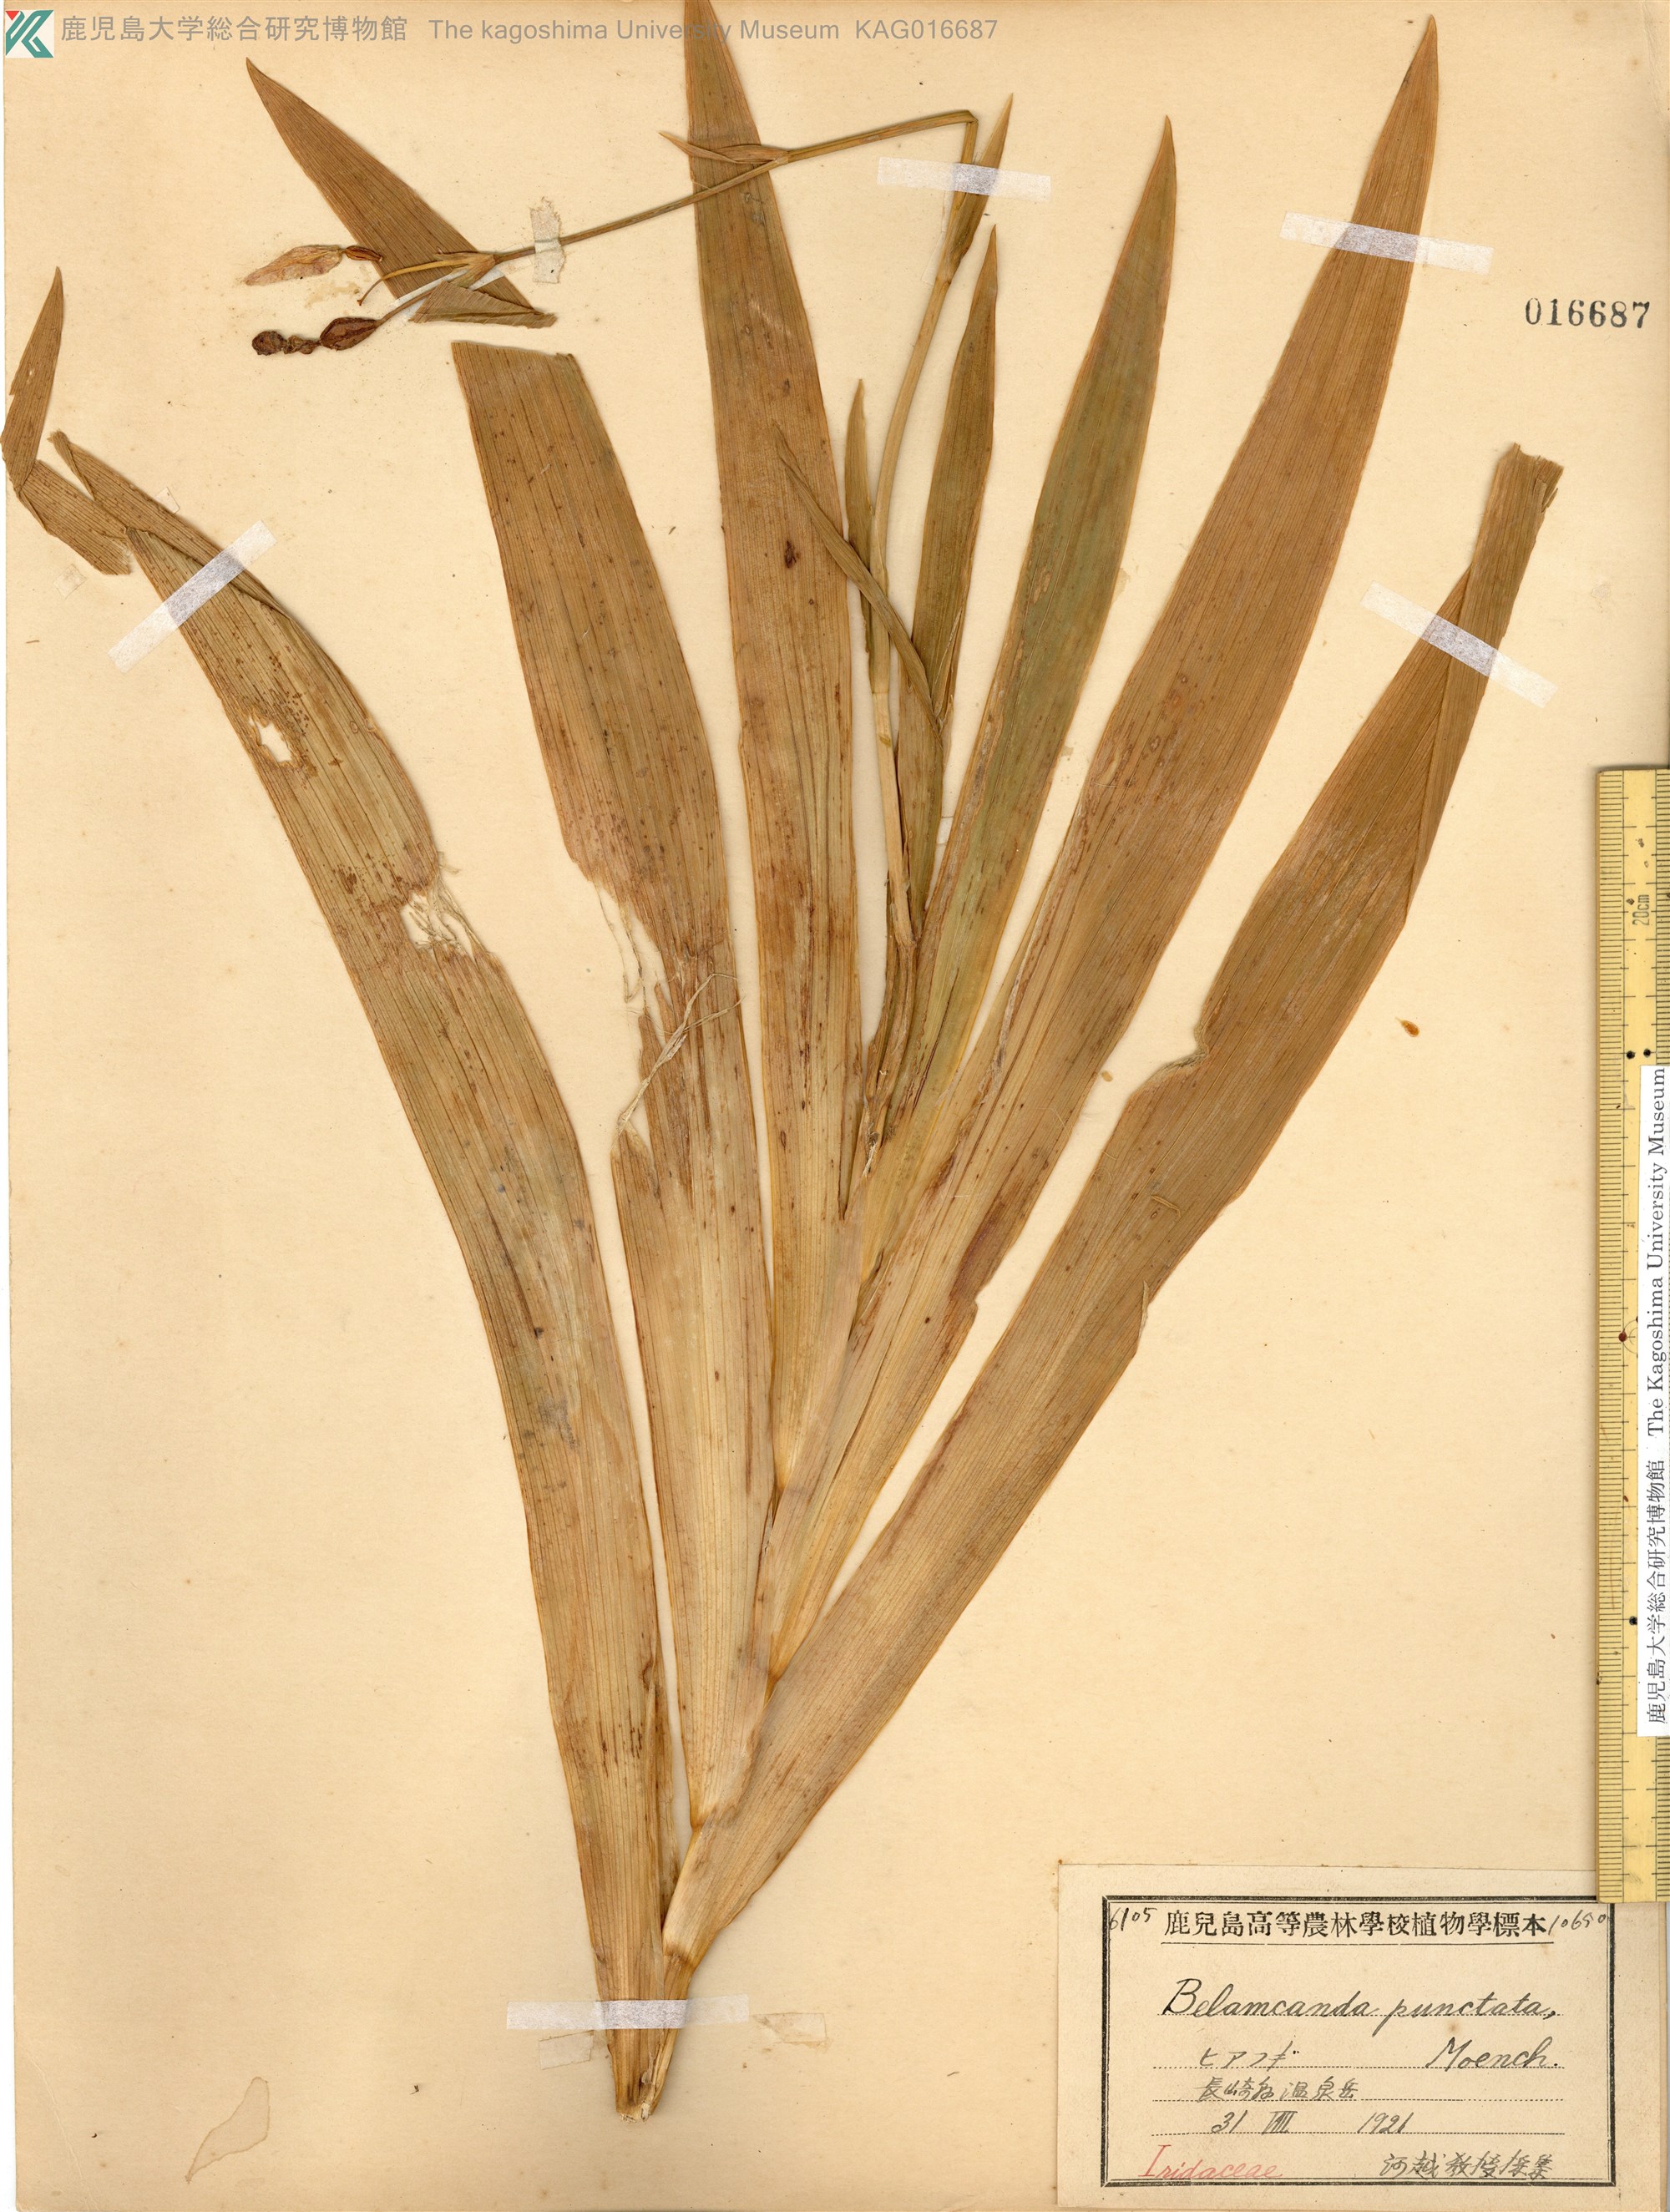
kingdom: Plantae
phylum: Tracheophyta
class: Liliopsida
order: Asparagales
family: Iridaceae
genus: Iris
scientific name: Iris domestica
